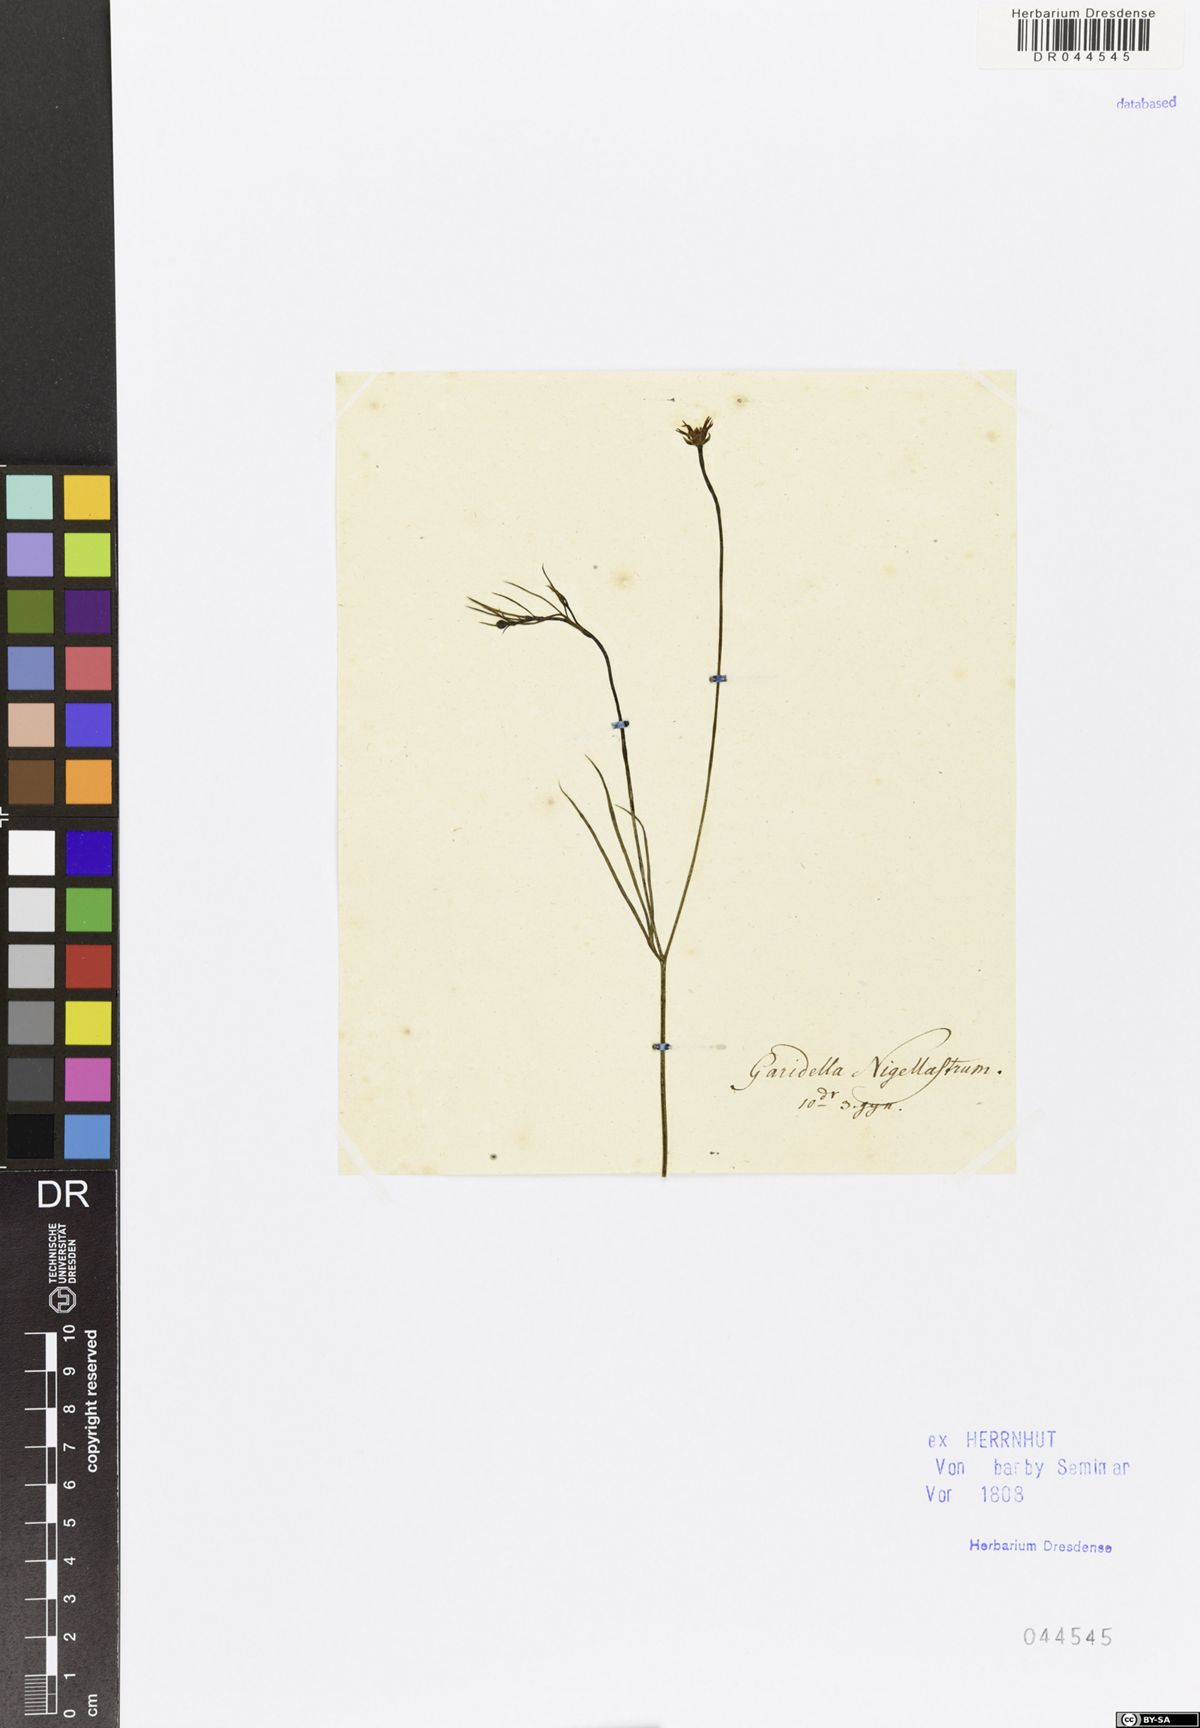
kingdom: Plantae
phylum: Tracheophyta
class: Magnoliopsida
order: Ranunculales
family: Ranunculaceae
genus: Garidella
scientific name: Garidella nigellastrum
